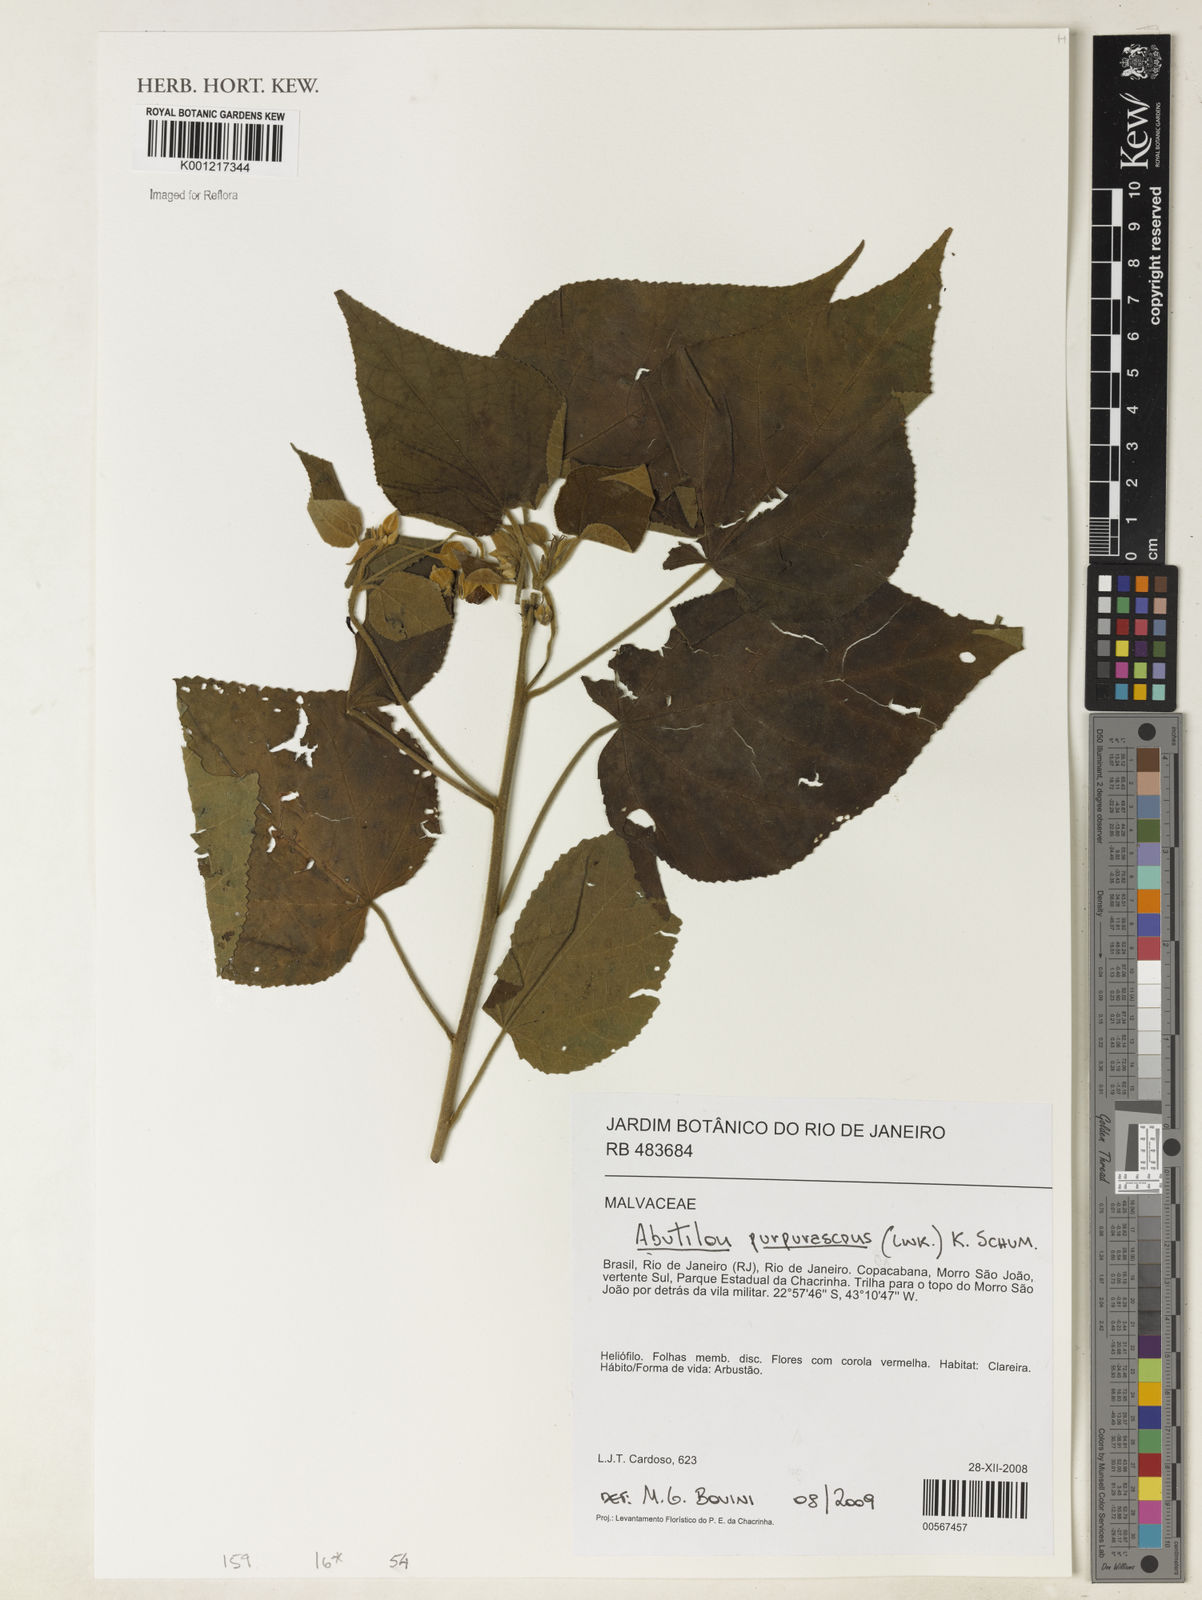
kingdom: Plantae
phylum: Tracheophyta
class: Magnoliopsida
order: Malvales
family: Malvaceae
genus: Bakeridesia
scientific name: Bakeridesia esculenta
